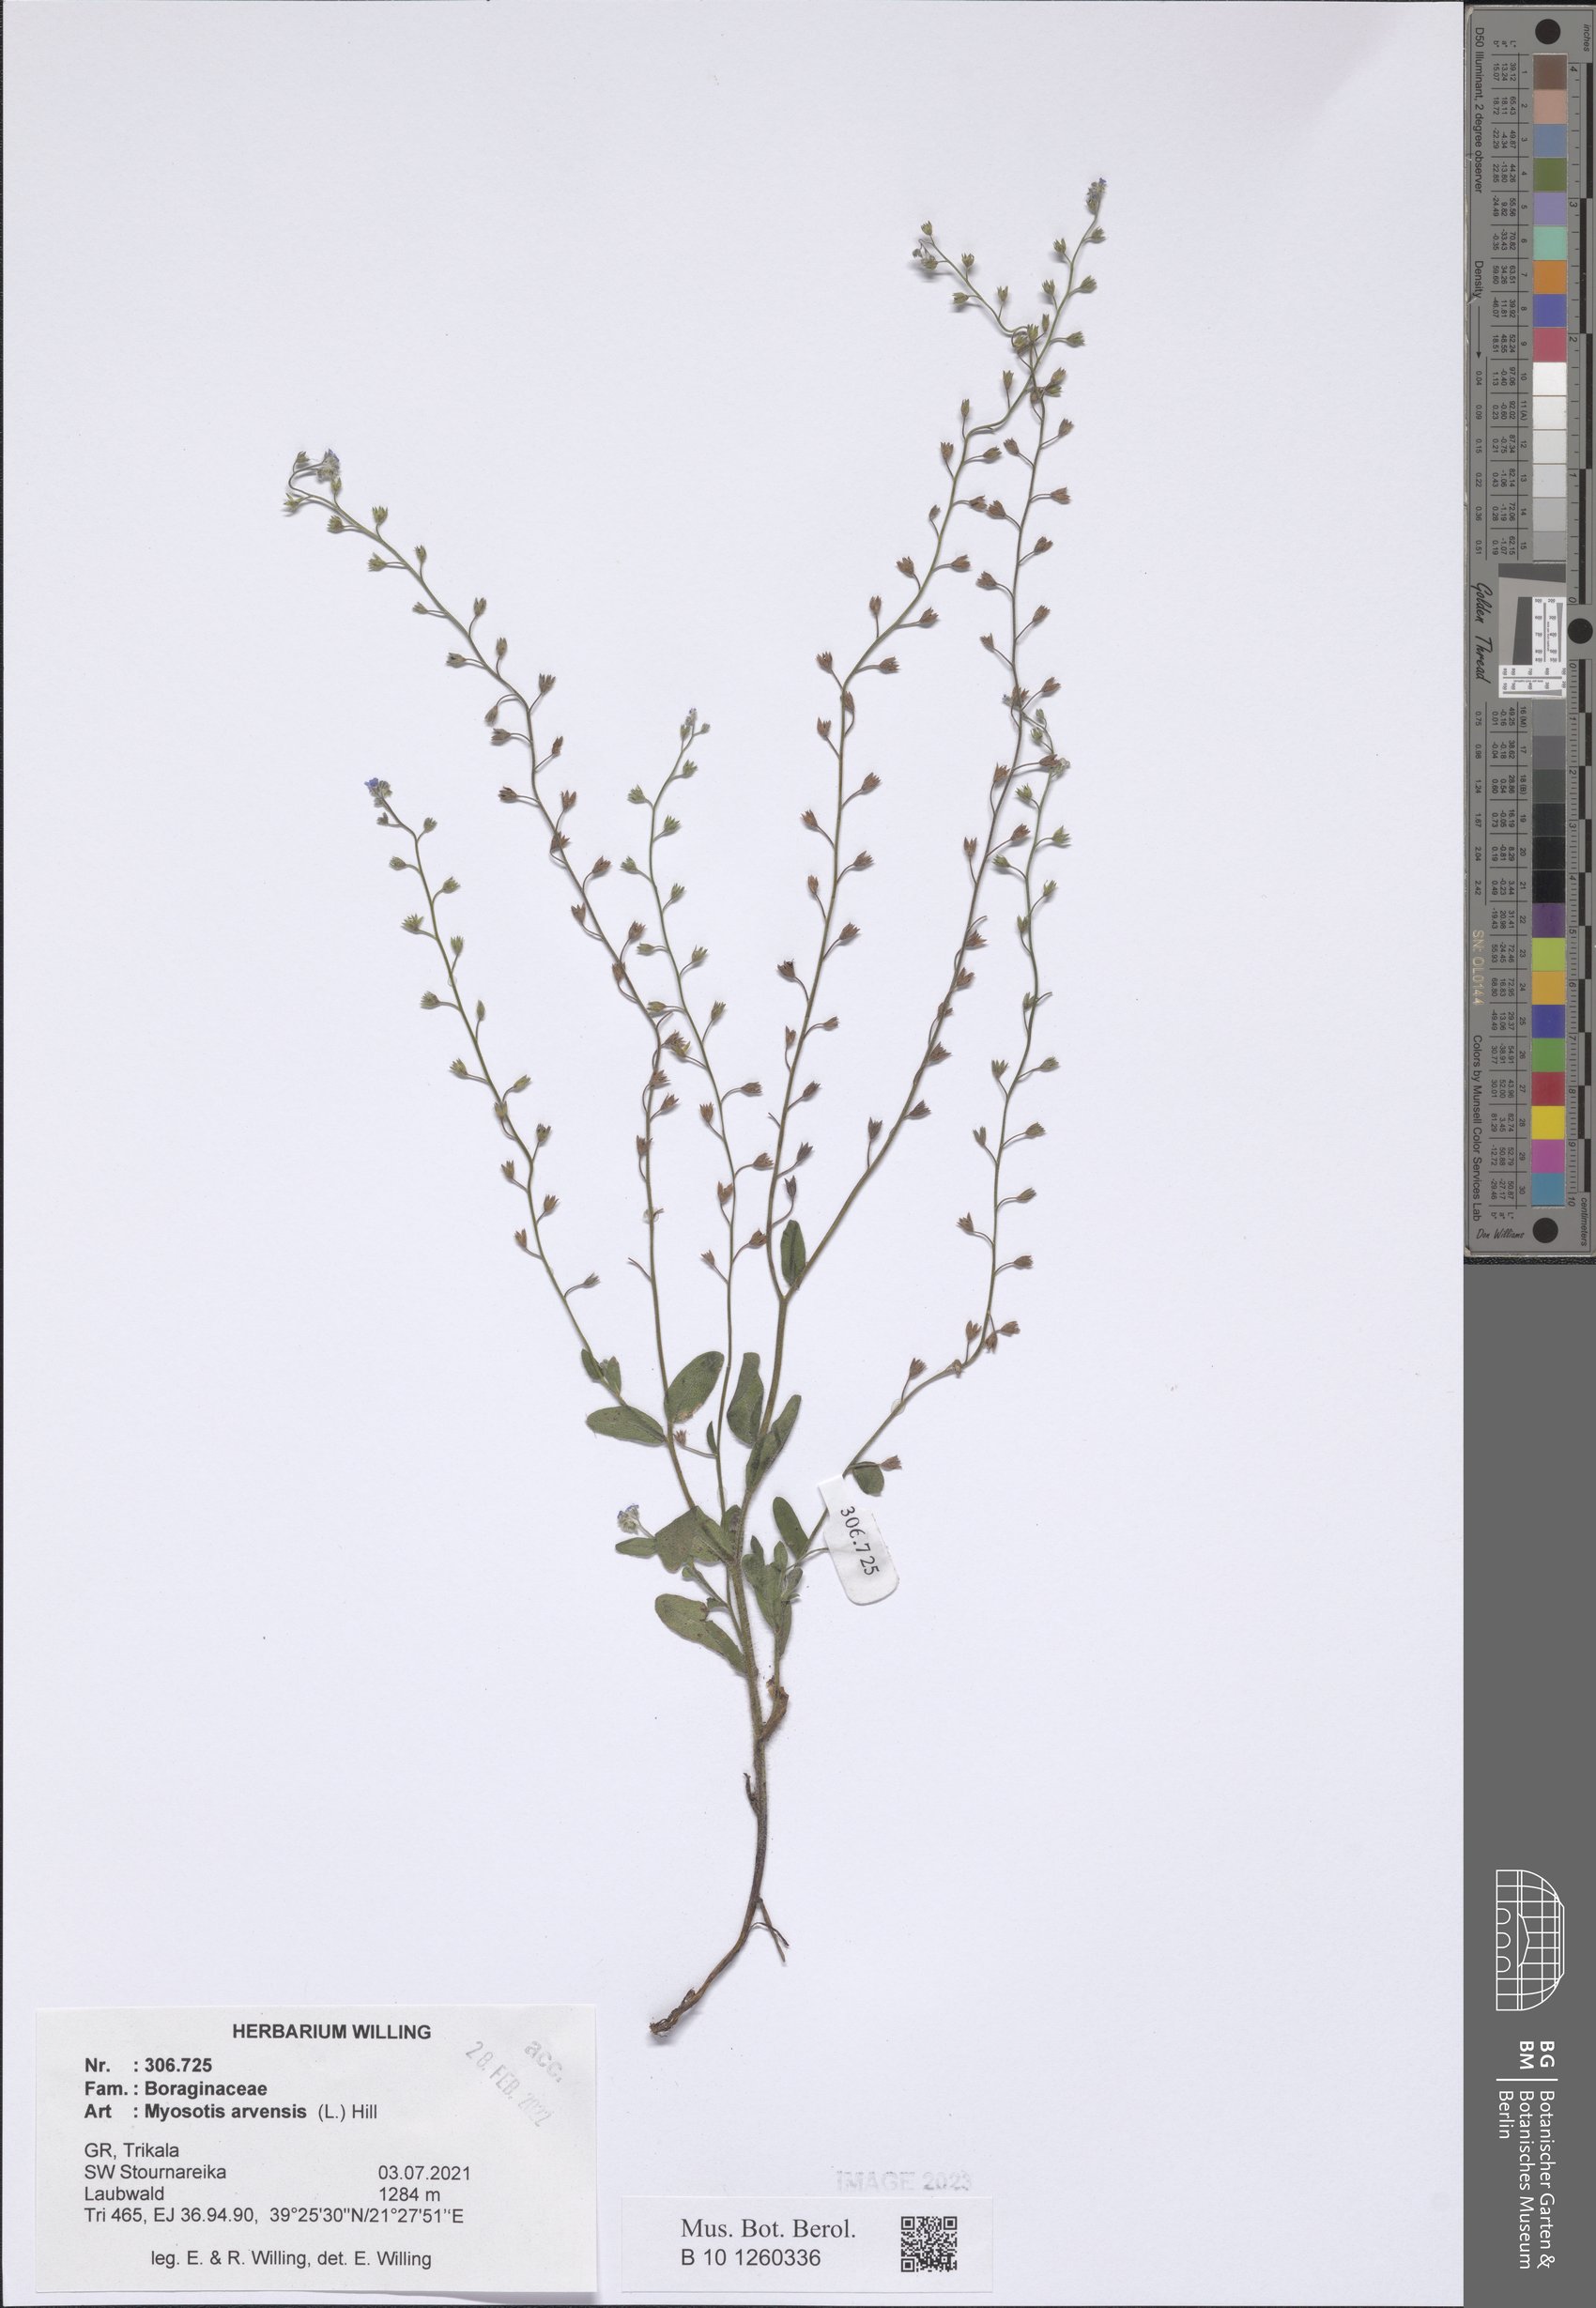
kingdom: Plantae
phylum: Tracheophyta
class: Magnoliopsida
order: Boraginales
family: Boraginaceae
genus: Myosotis
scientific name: Myosotis arvensis
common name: Field forget-me-not
